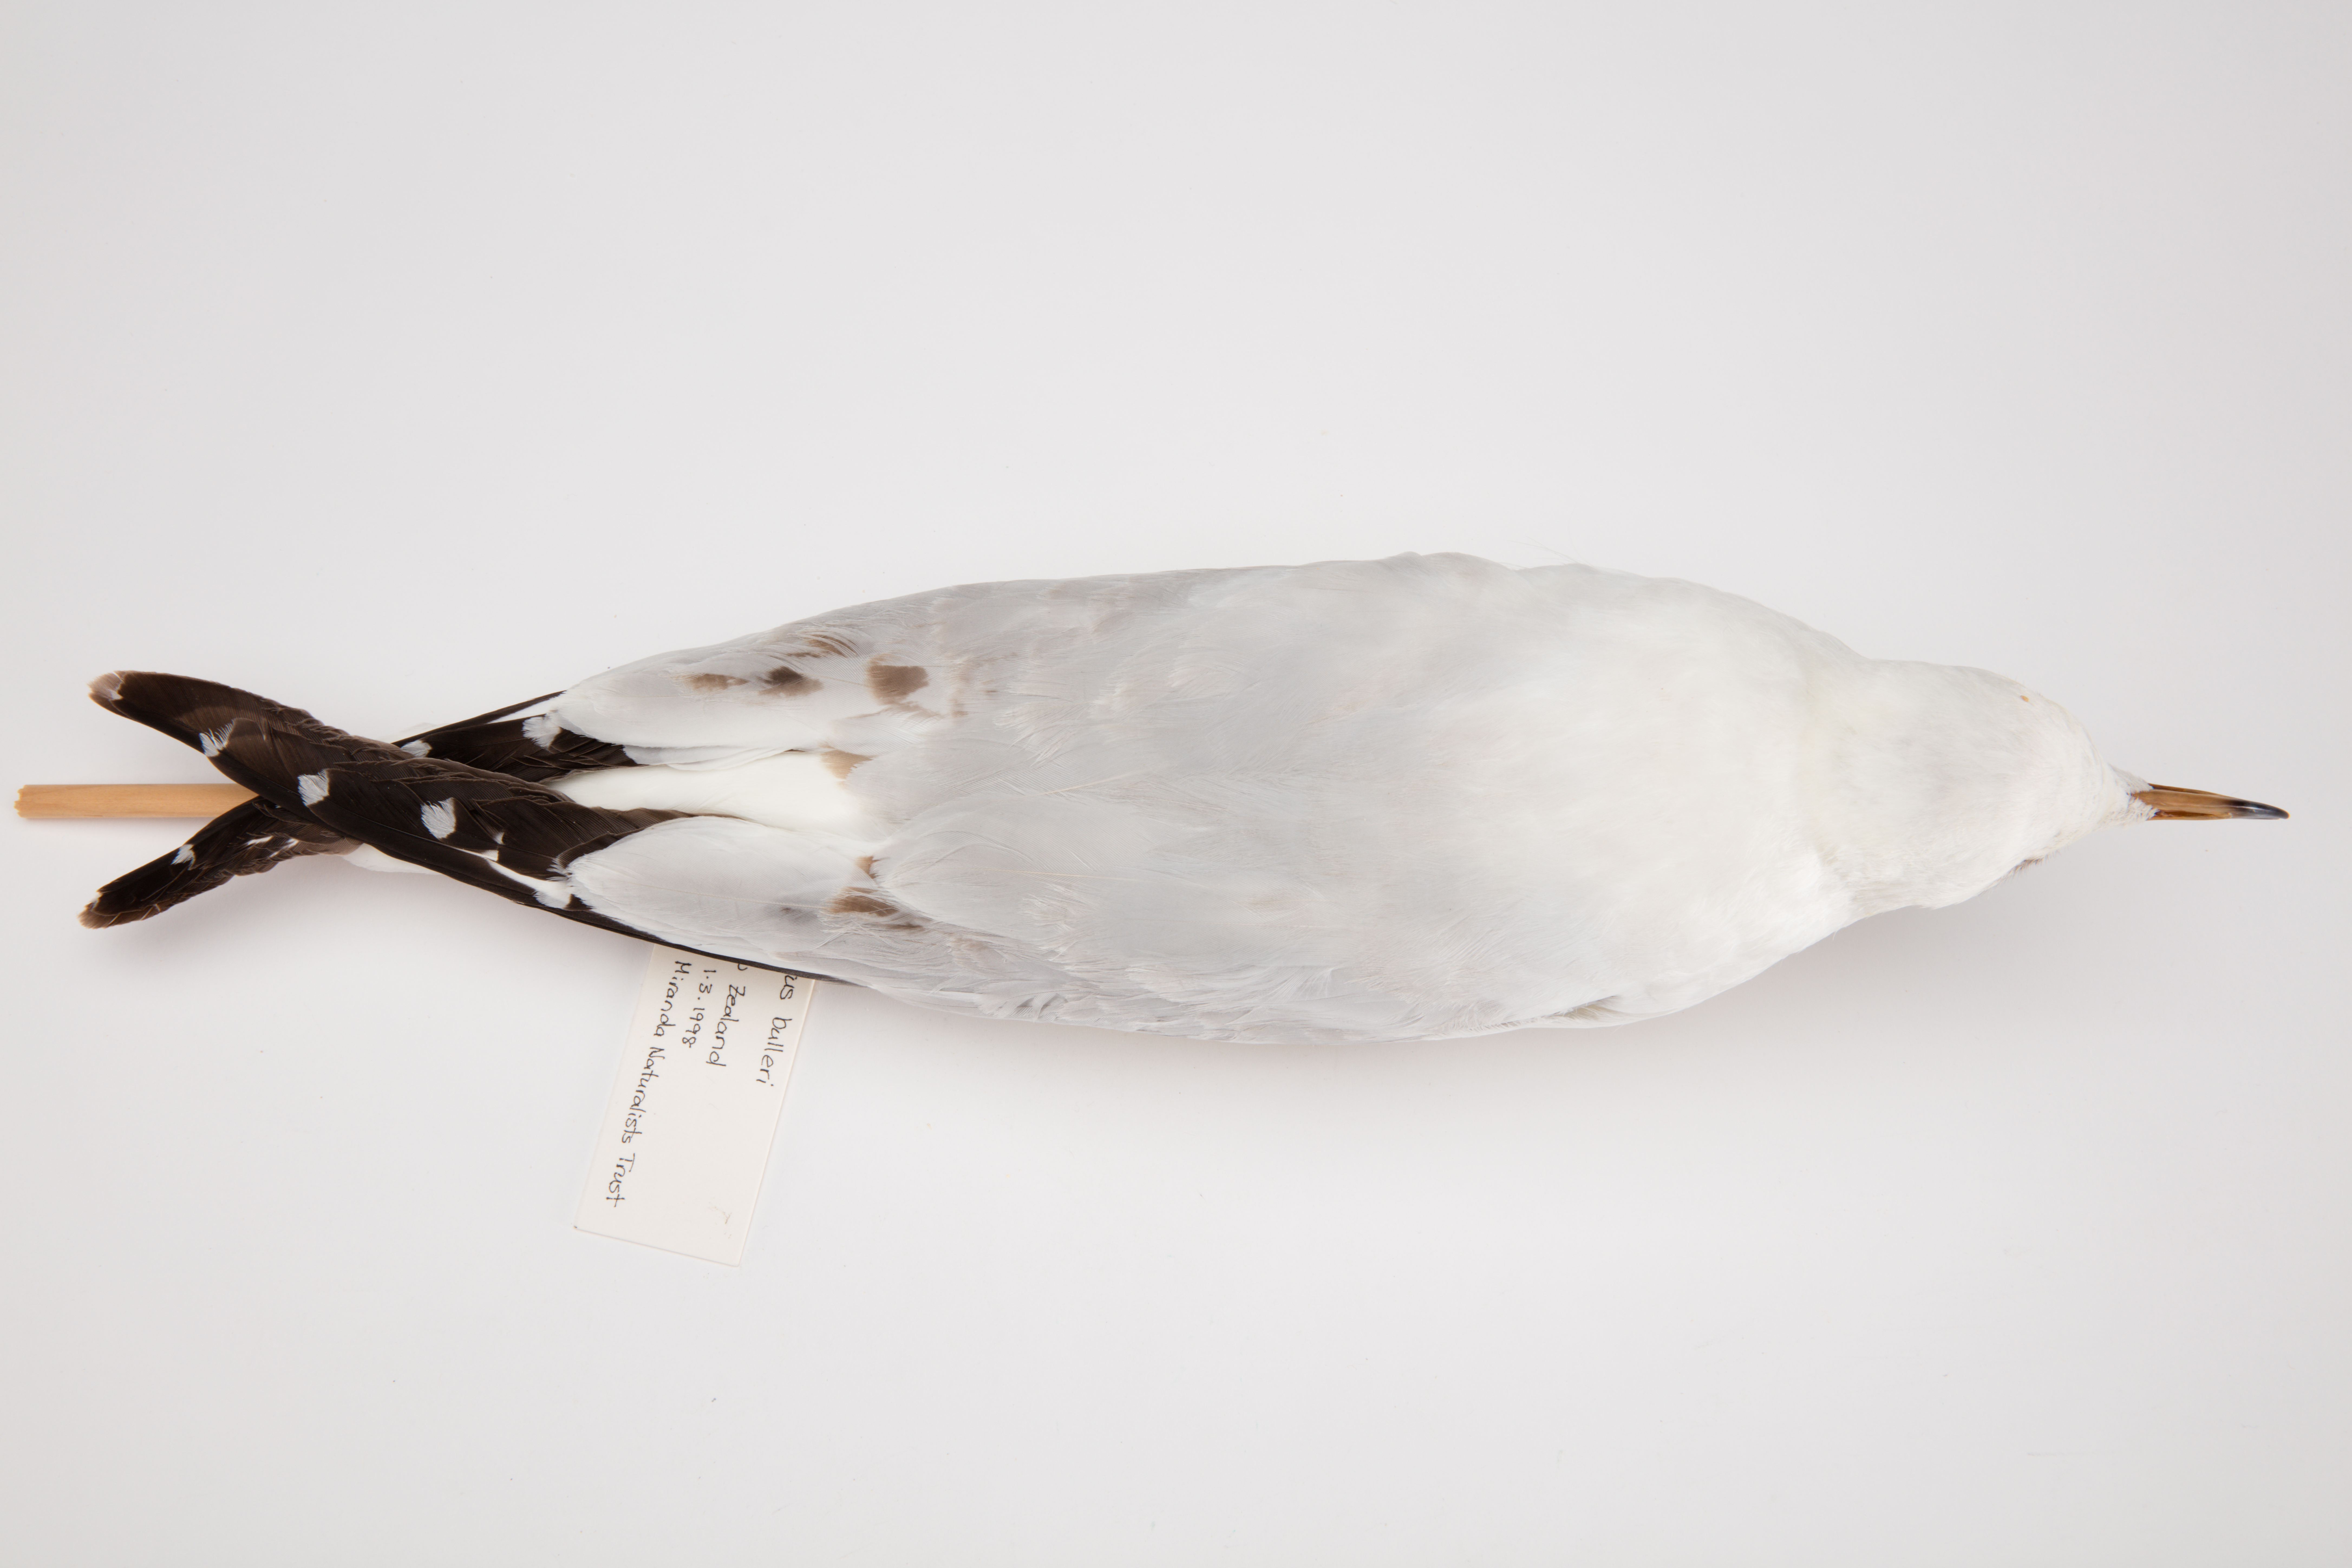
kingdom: Animalia
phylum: Chordata
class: Aves
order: Charadriiformes
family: Laridae
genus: Chroicocephalus
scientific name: Chroicocephalus bulleri
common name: Black-billed gull
